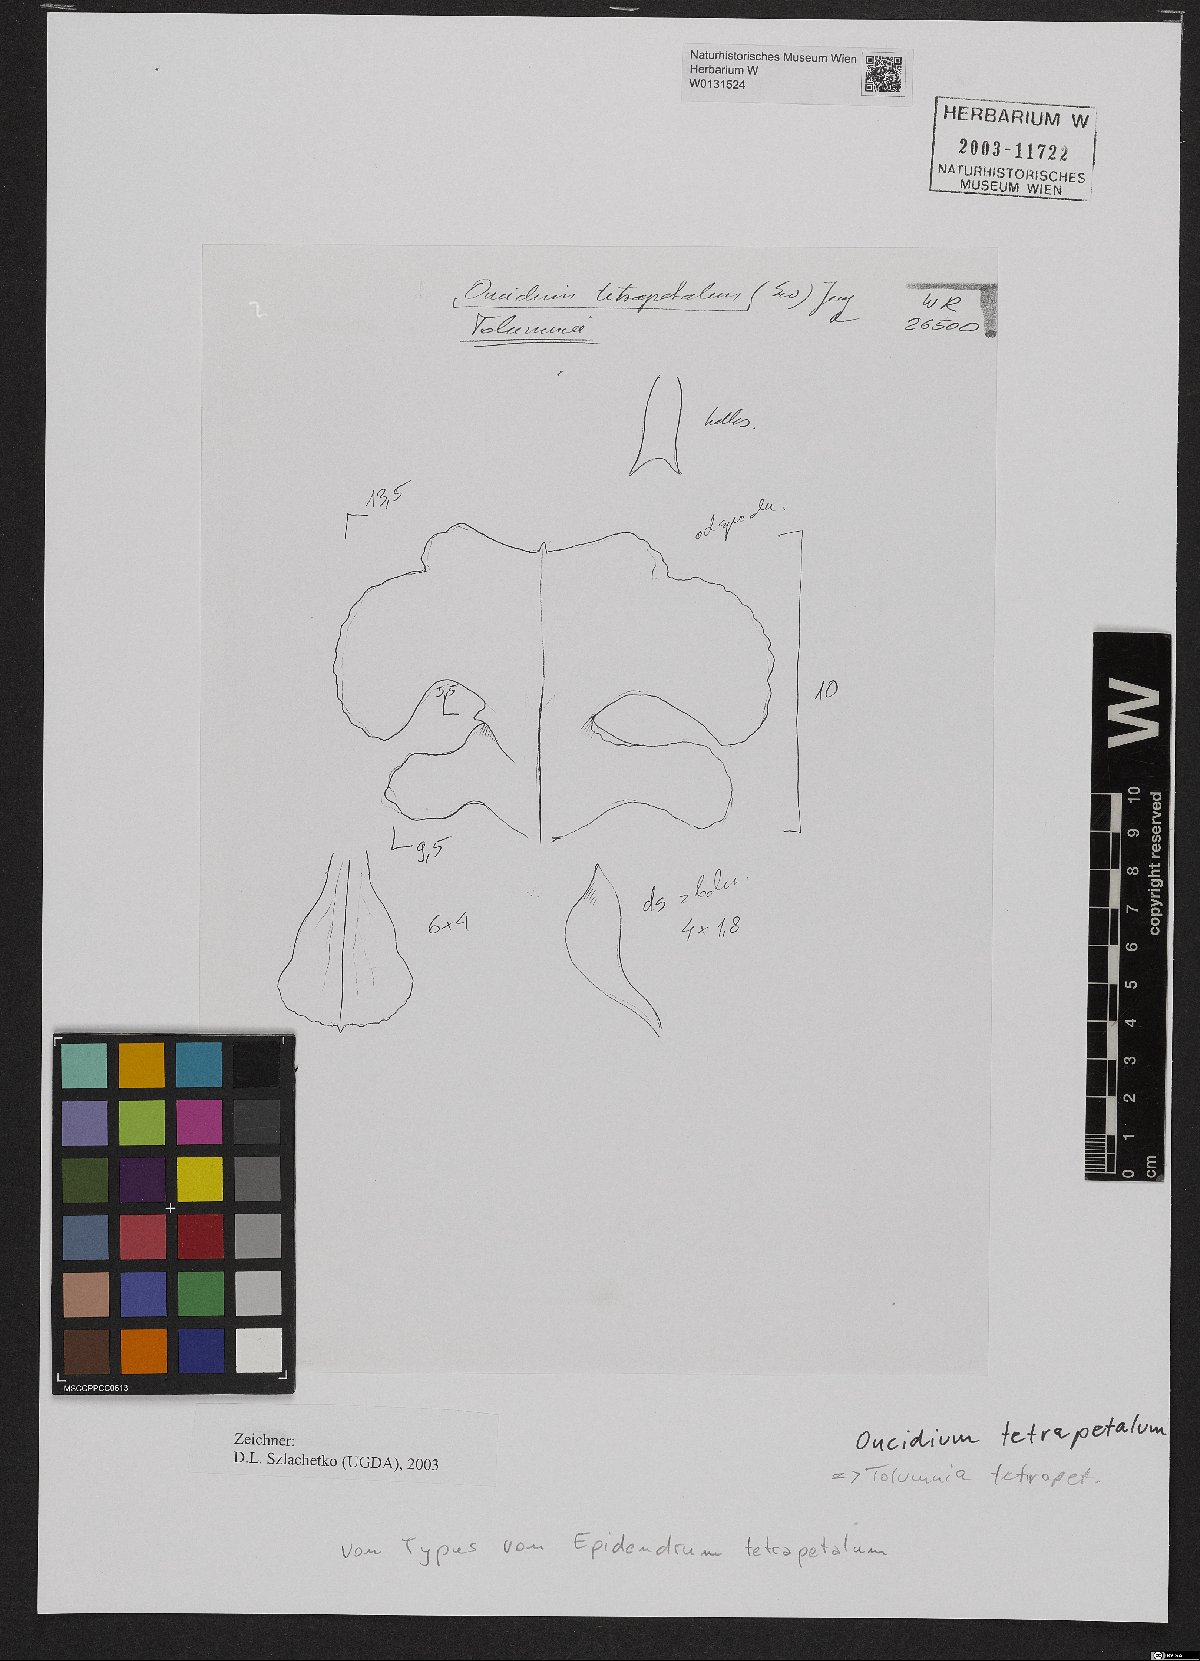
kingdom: Plantae
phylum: Tracheophyta
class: Liliopsida
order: Asparagales
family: Orchidaceae
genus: Tolumnia
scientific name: Tolumnia guttata
